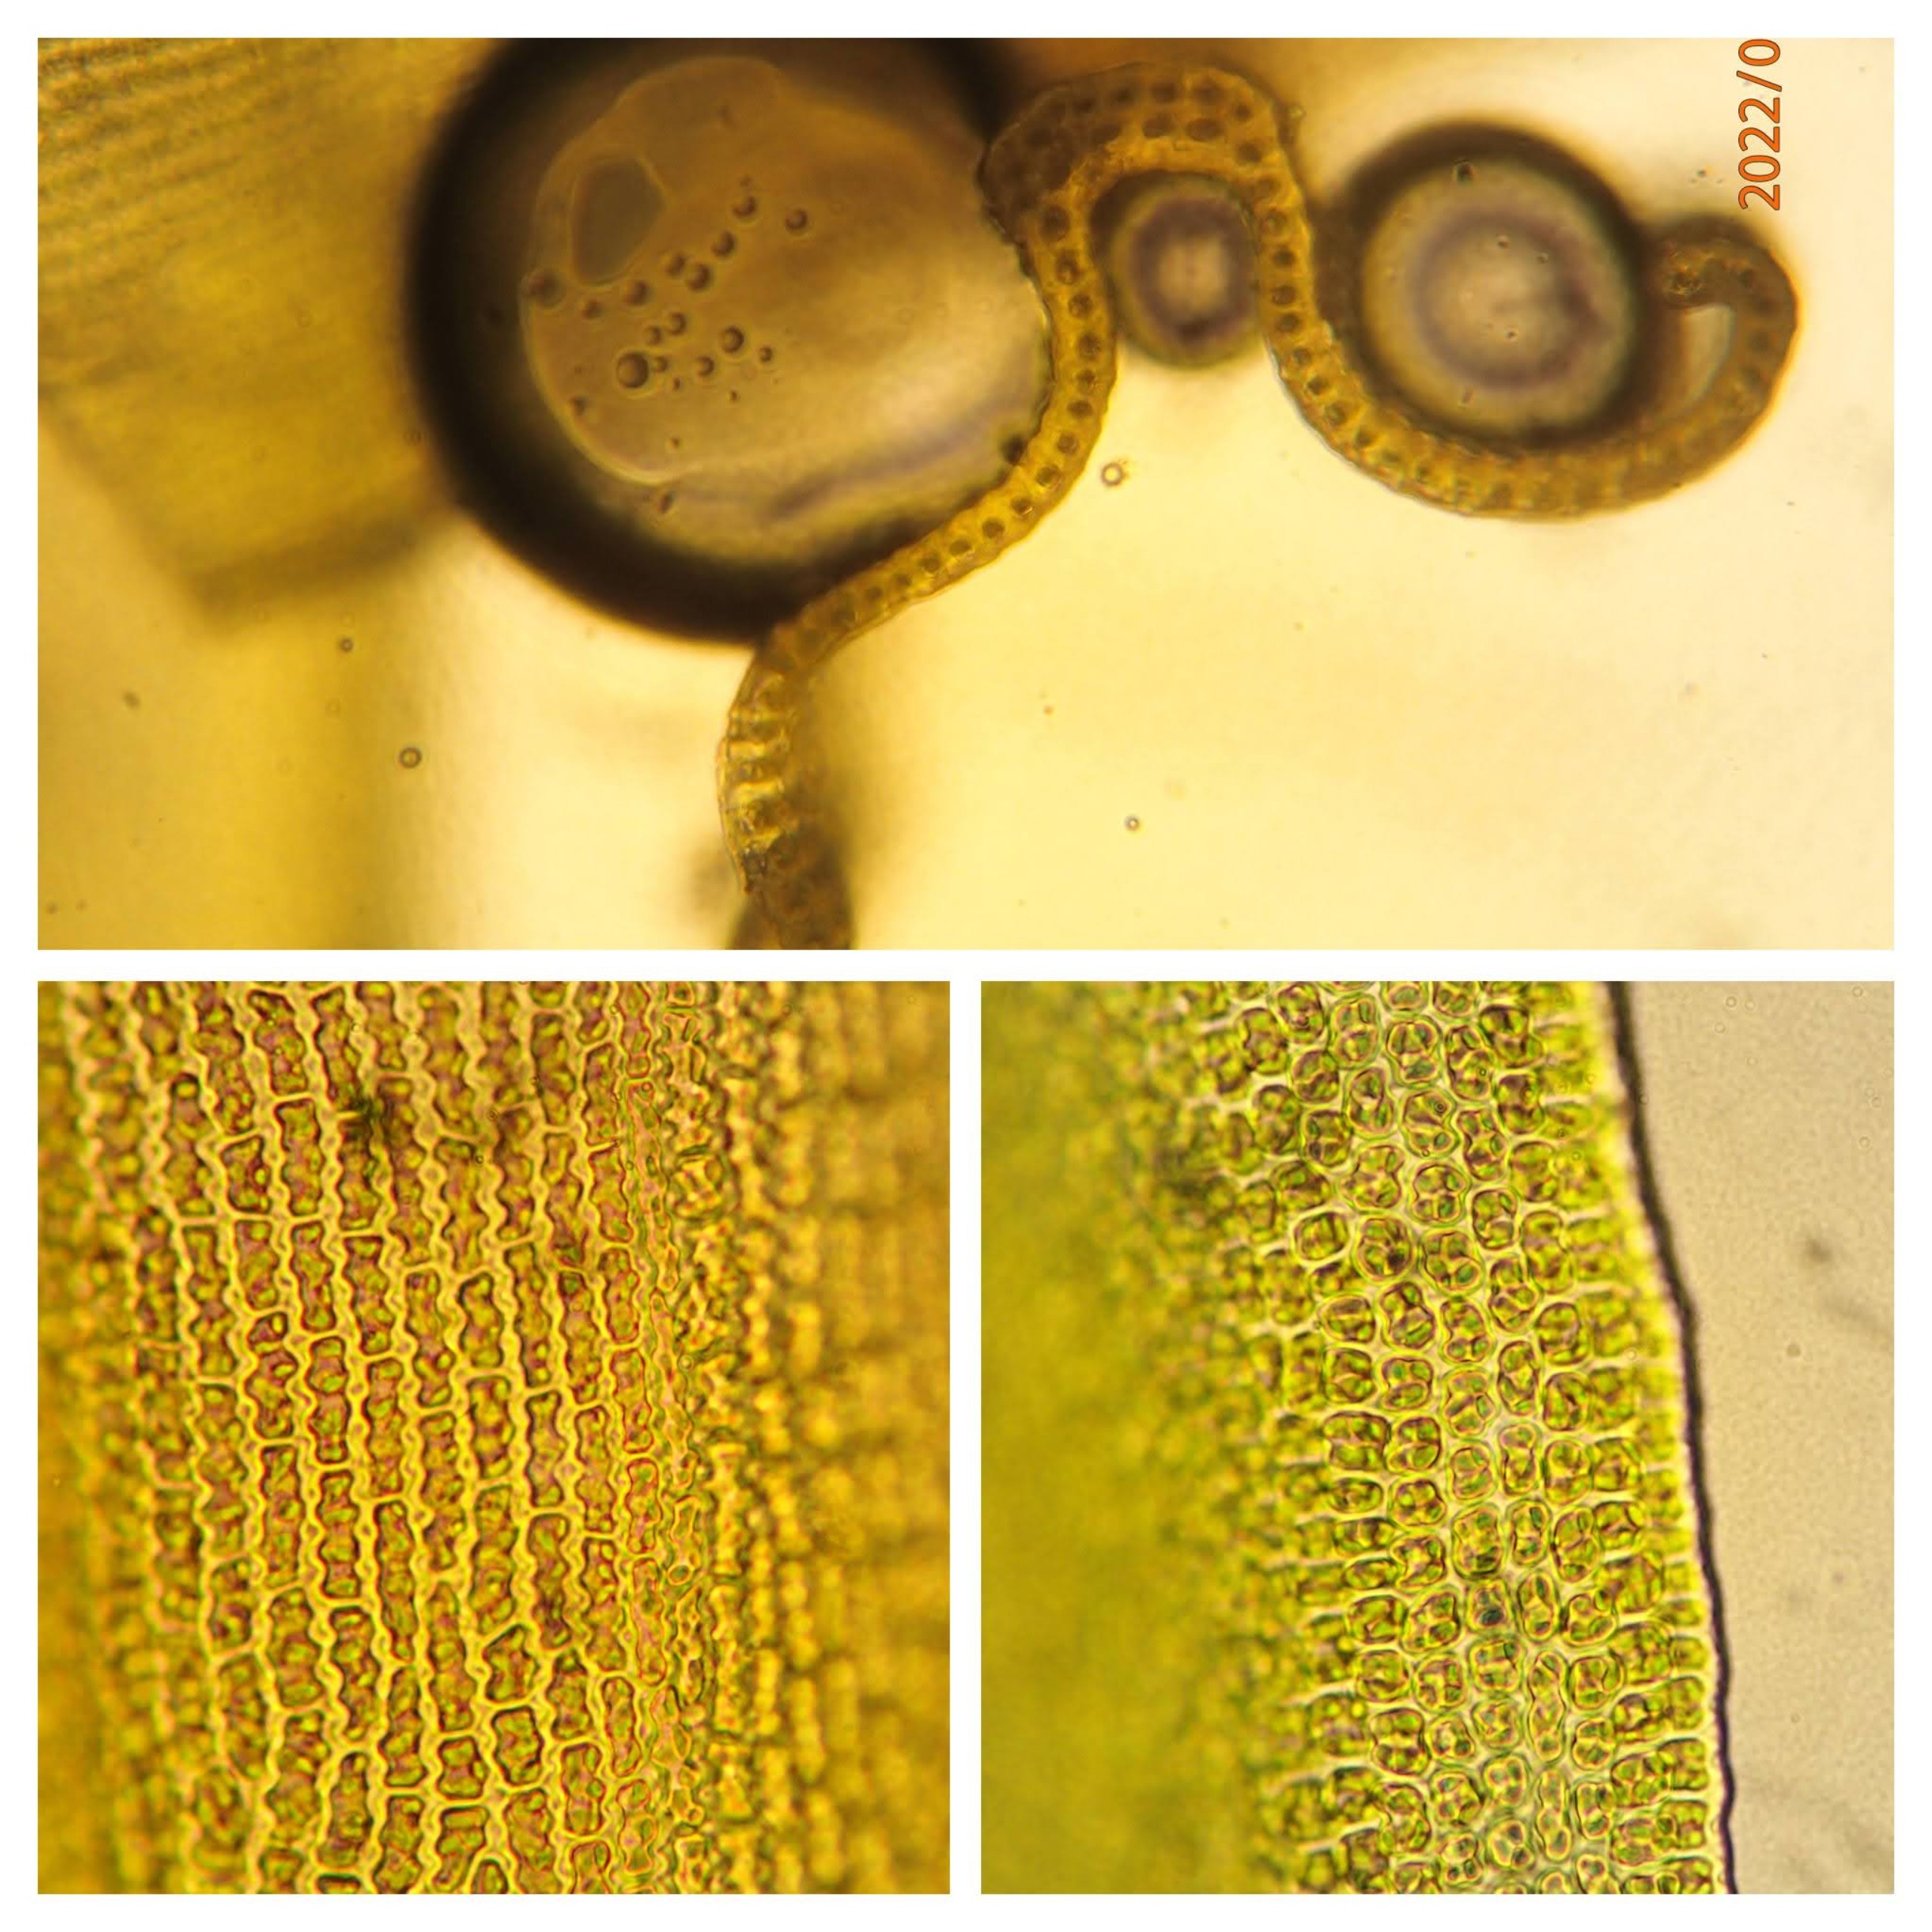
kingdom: Plantae
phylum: Bryophyta
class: Bryopsida
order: Grimmiales
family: Grimmiaceae
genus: Bucklandiella
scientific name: Bucklandiella heterosticha
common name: Sten-børstemos
